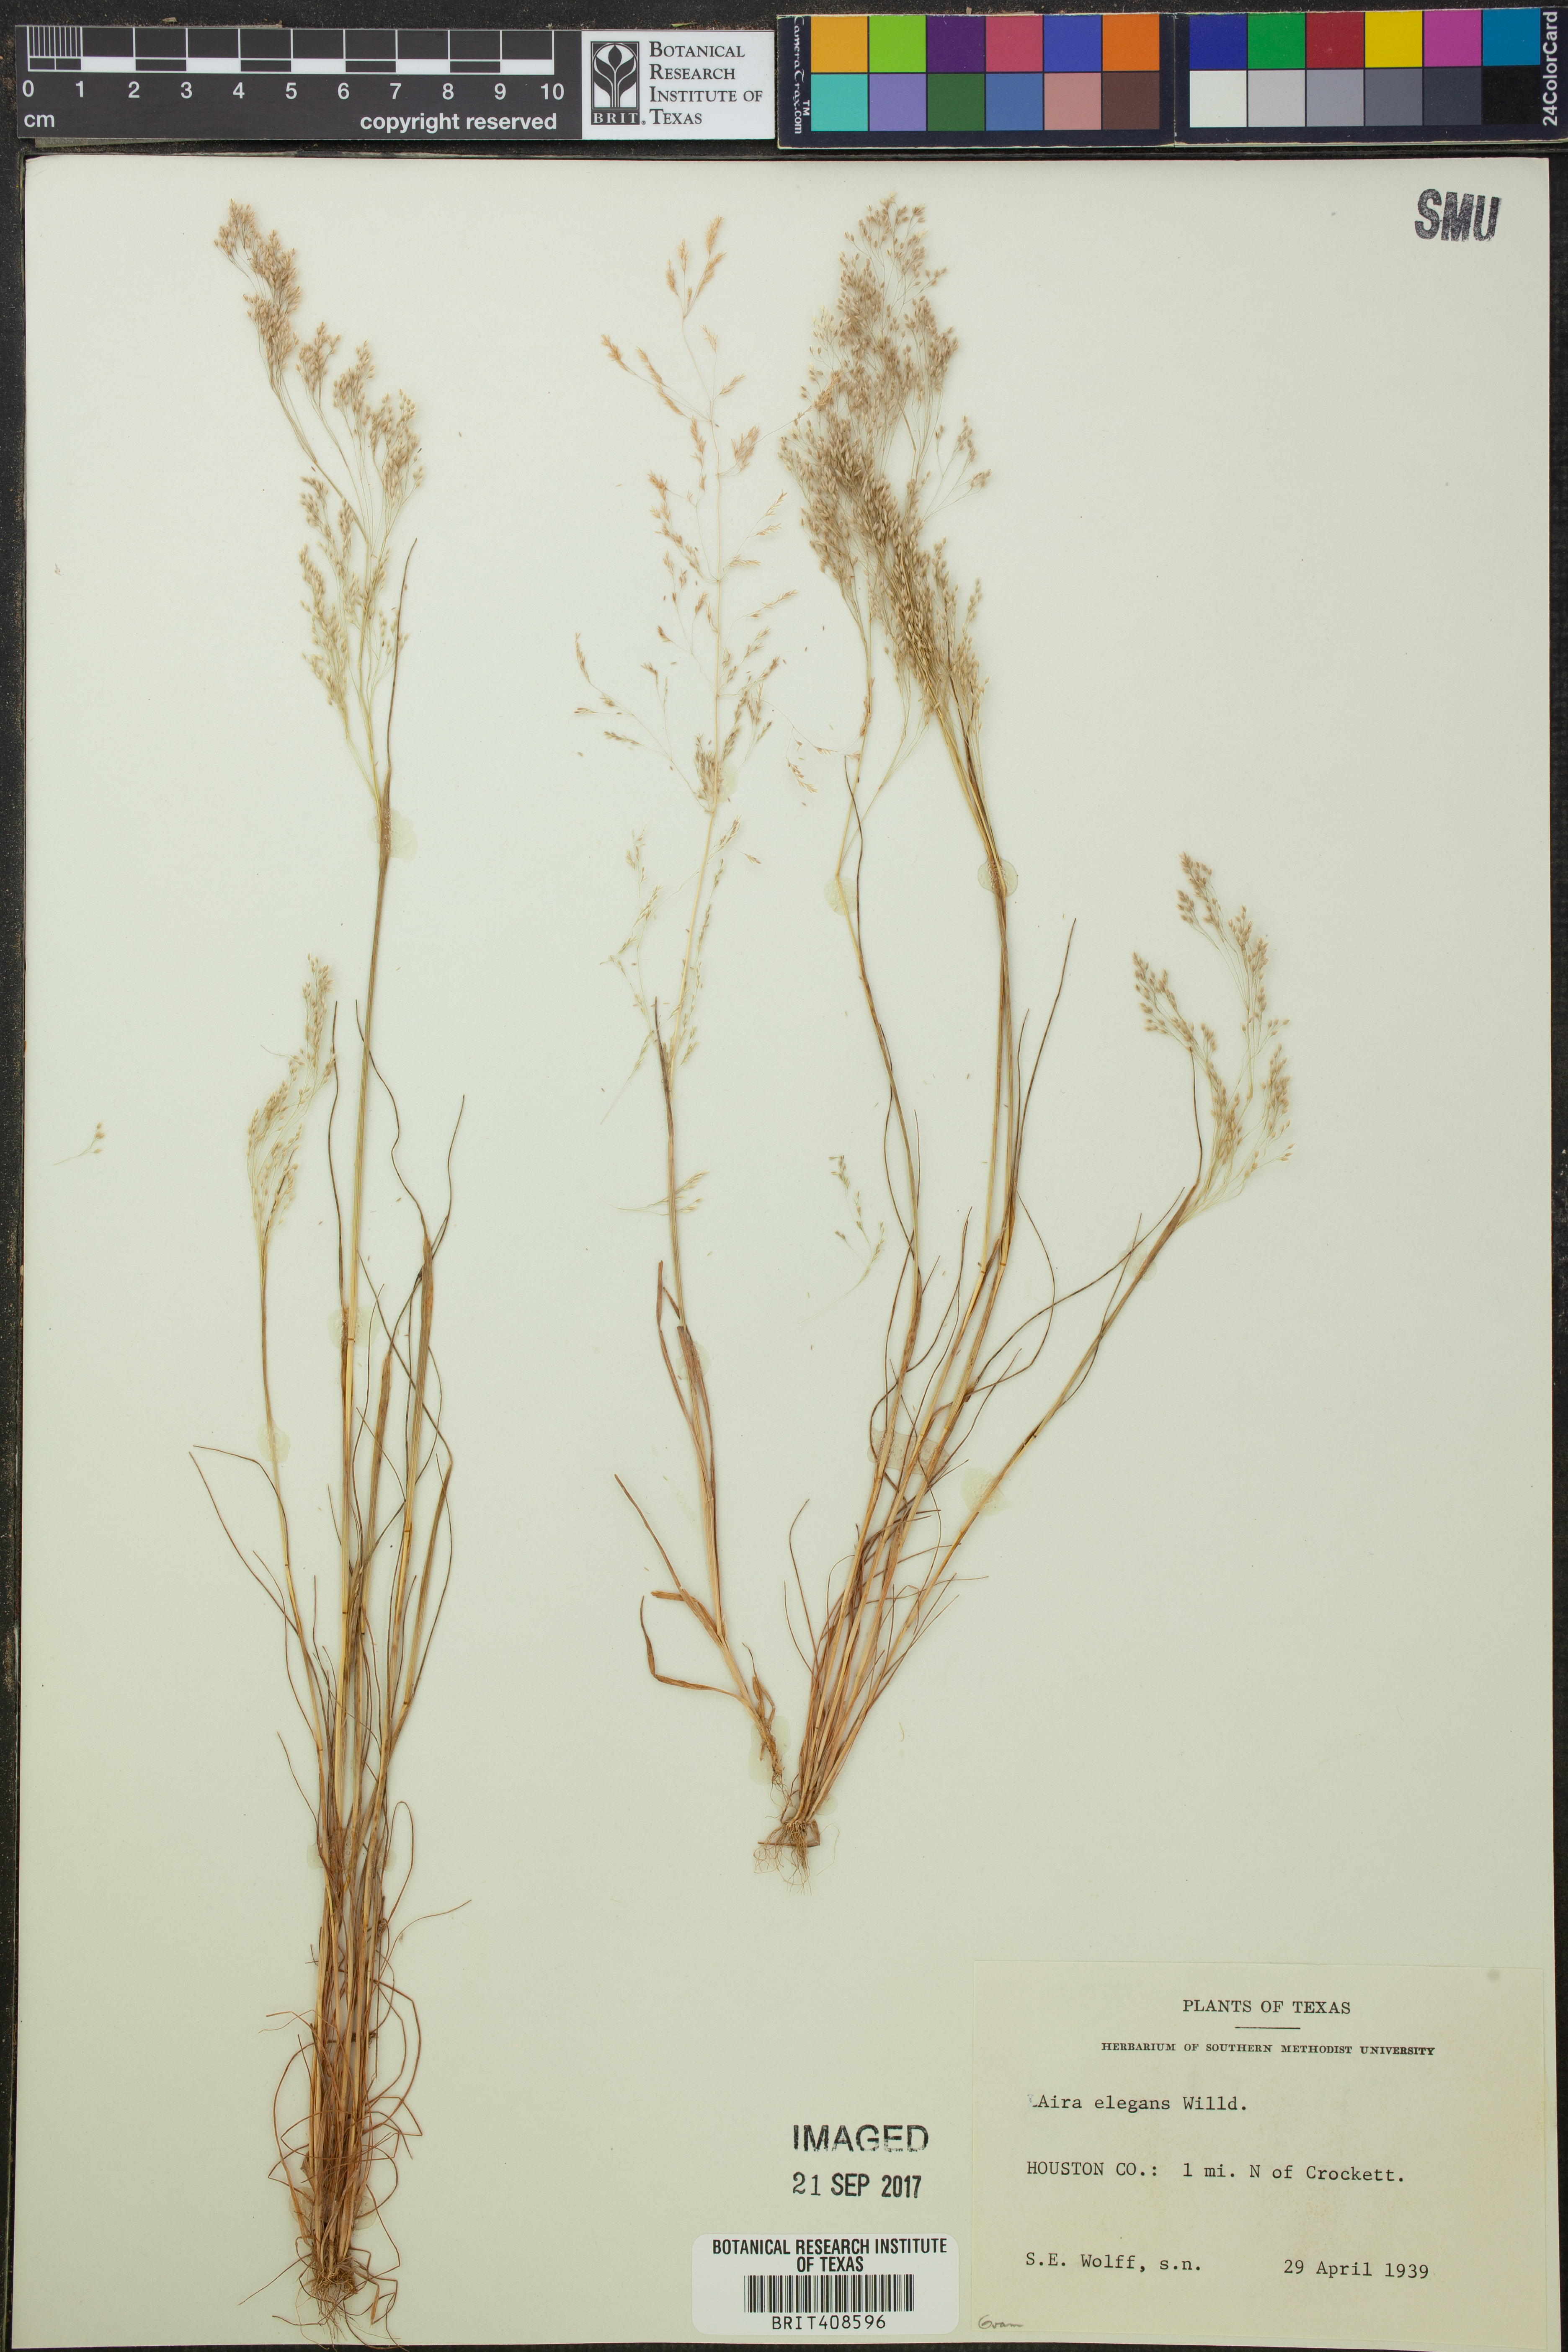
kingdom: Plantae
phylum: Tracheophyta
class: Liliopsida
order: Poales
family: Poaceae
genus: Aira
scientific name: Aira elegans
